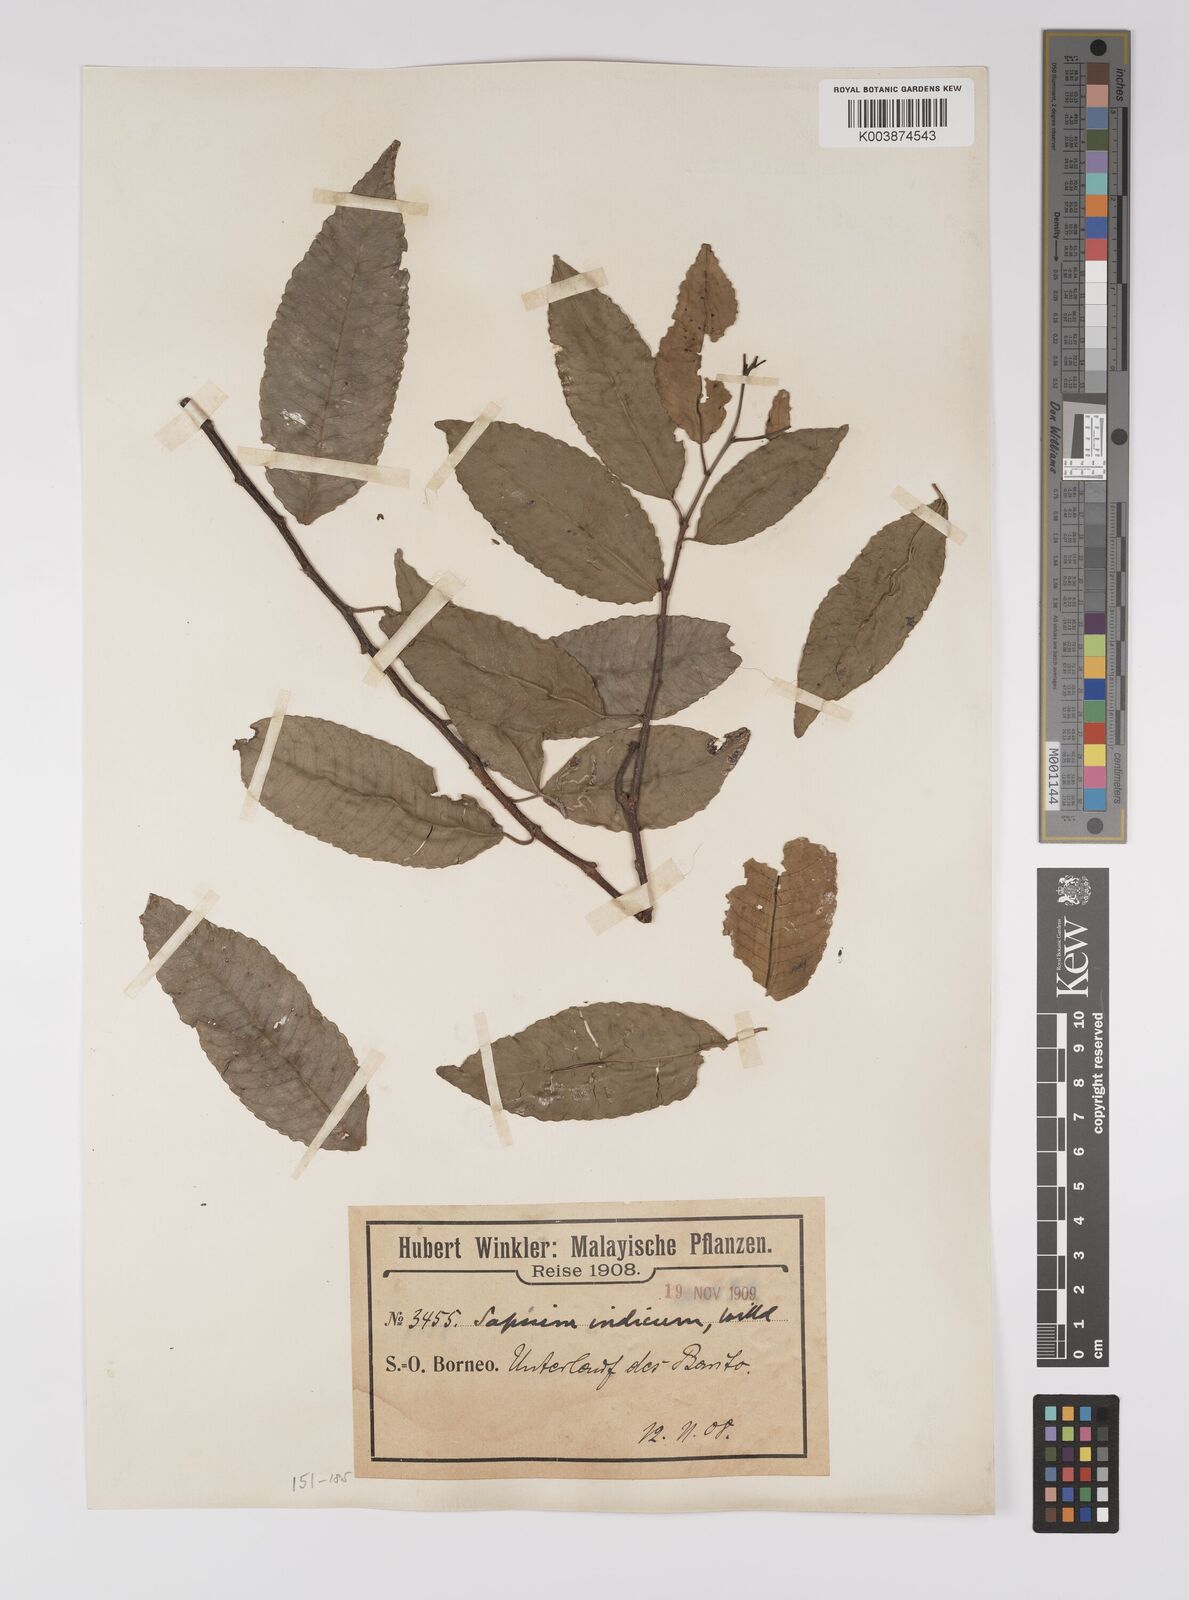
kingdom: Plantae
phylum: Tracheophyta
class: Magnoliopsida
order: Malpighiales
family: Euphorbiaceae
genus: Shirakiopsis
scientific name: Shirakiopsis indica
